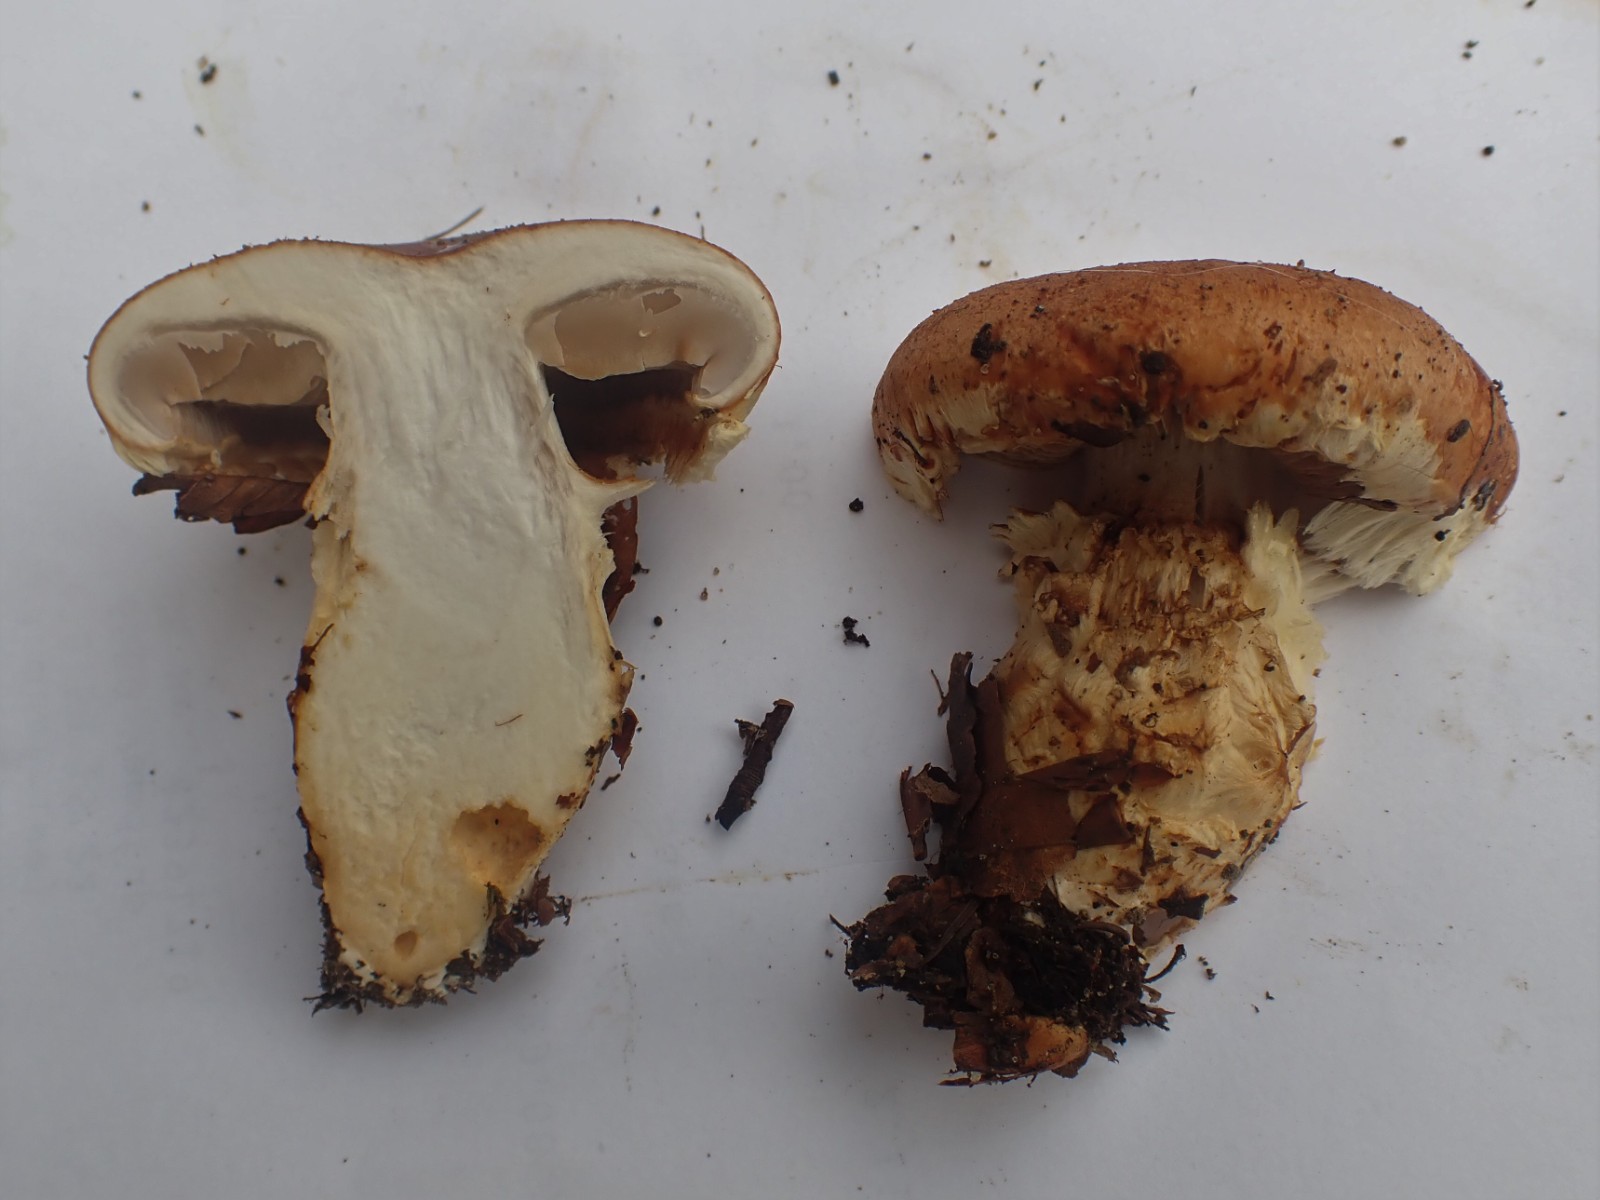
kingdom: Fungi
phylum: Basidiomycota
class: Agaricomycetes
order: Agaricales
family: Cortinariaceae
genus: Phlegmacium
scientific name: Phlegmacium vulpinum
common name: ringbæltet slørhat
